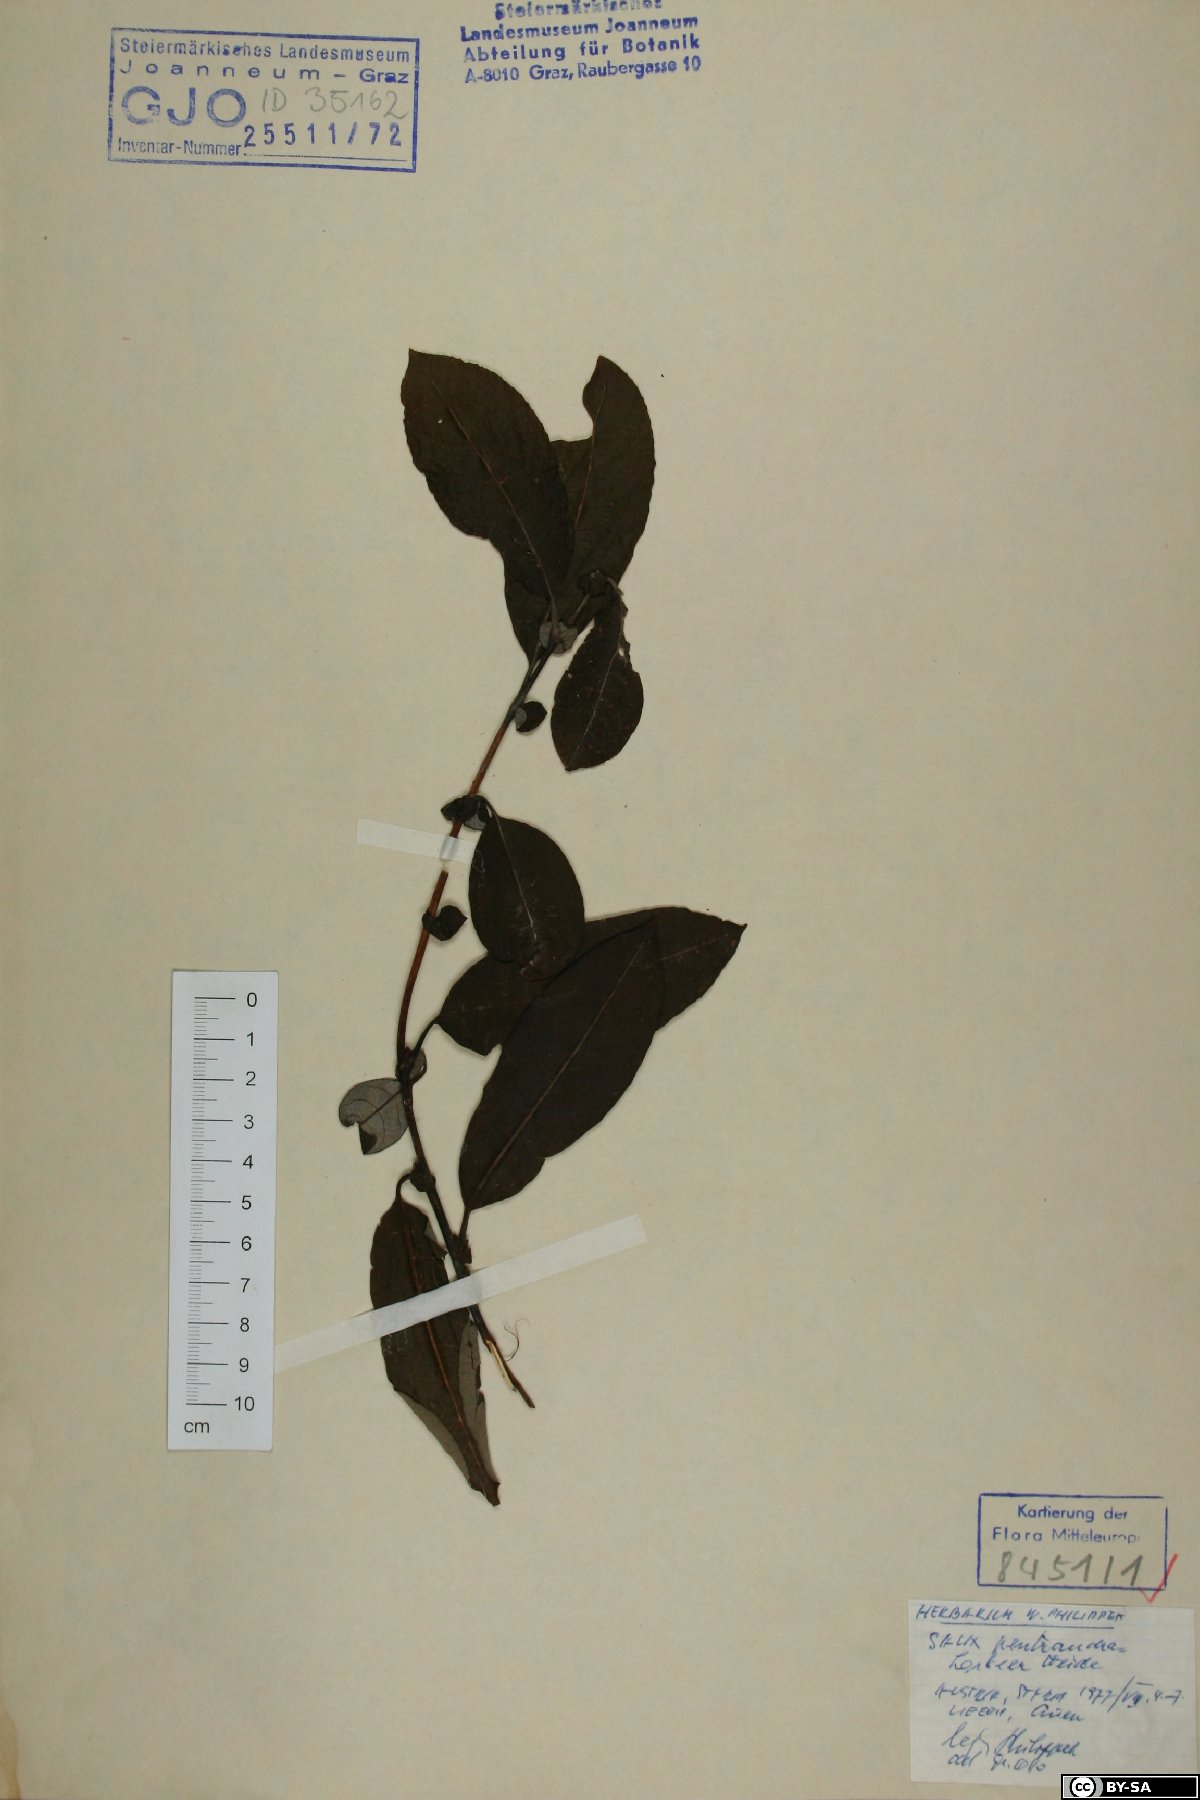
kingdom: Plantae
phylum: Tracheophyta
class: Magnoliopsida
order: Malpighiales
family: Salicaceae
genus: Salix
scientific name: Salix pentandra
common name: Bay willow
